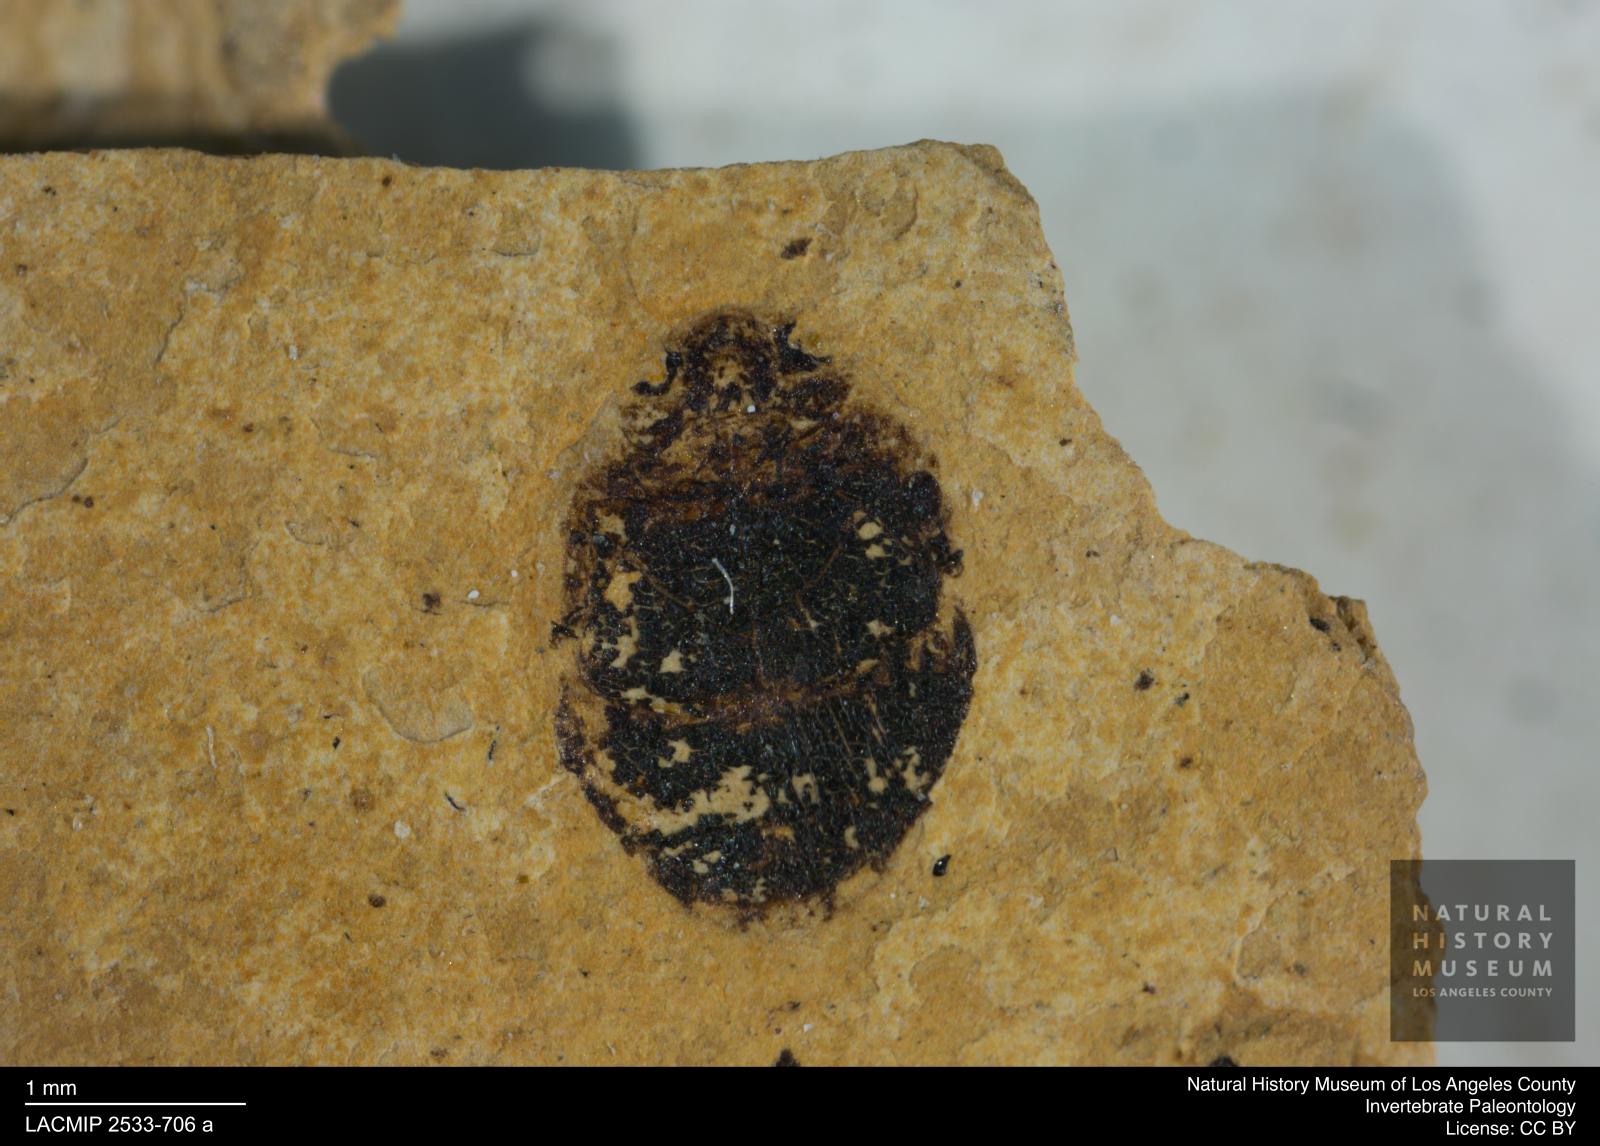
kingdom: Animalia
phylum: Arthropoda
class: Insecta
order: Coleoptera
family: Dytiscidae
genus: Oreodytes
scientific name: Oreodytes cryptolineatus
